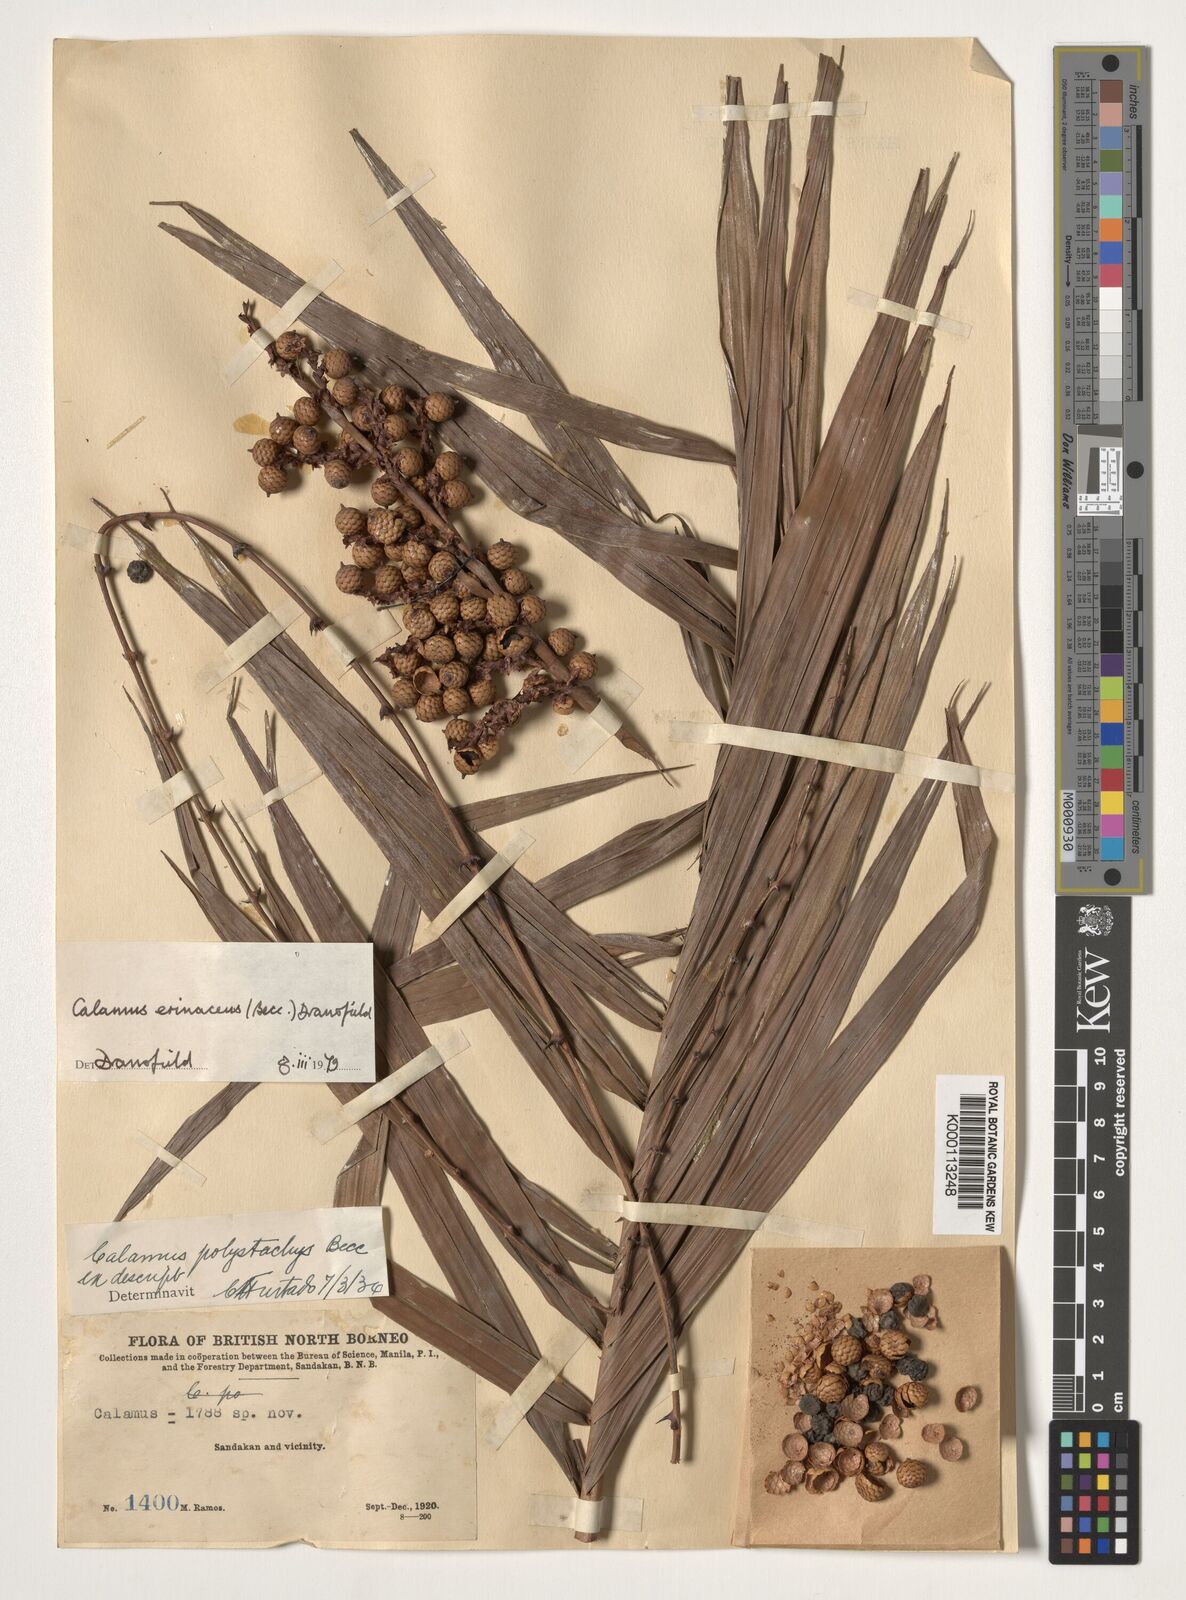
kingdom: Plantae
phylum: Tracheophyta
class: Liliopsida
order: Arecales
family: Arecaceae
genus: Calamus
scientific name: Calamus
